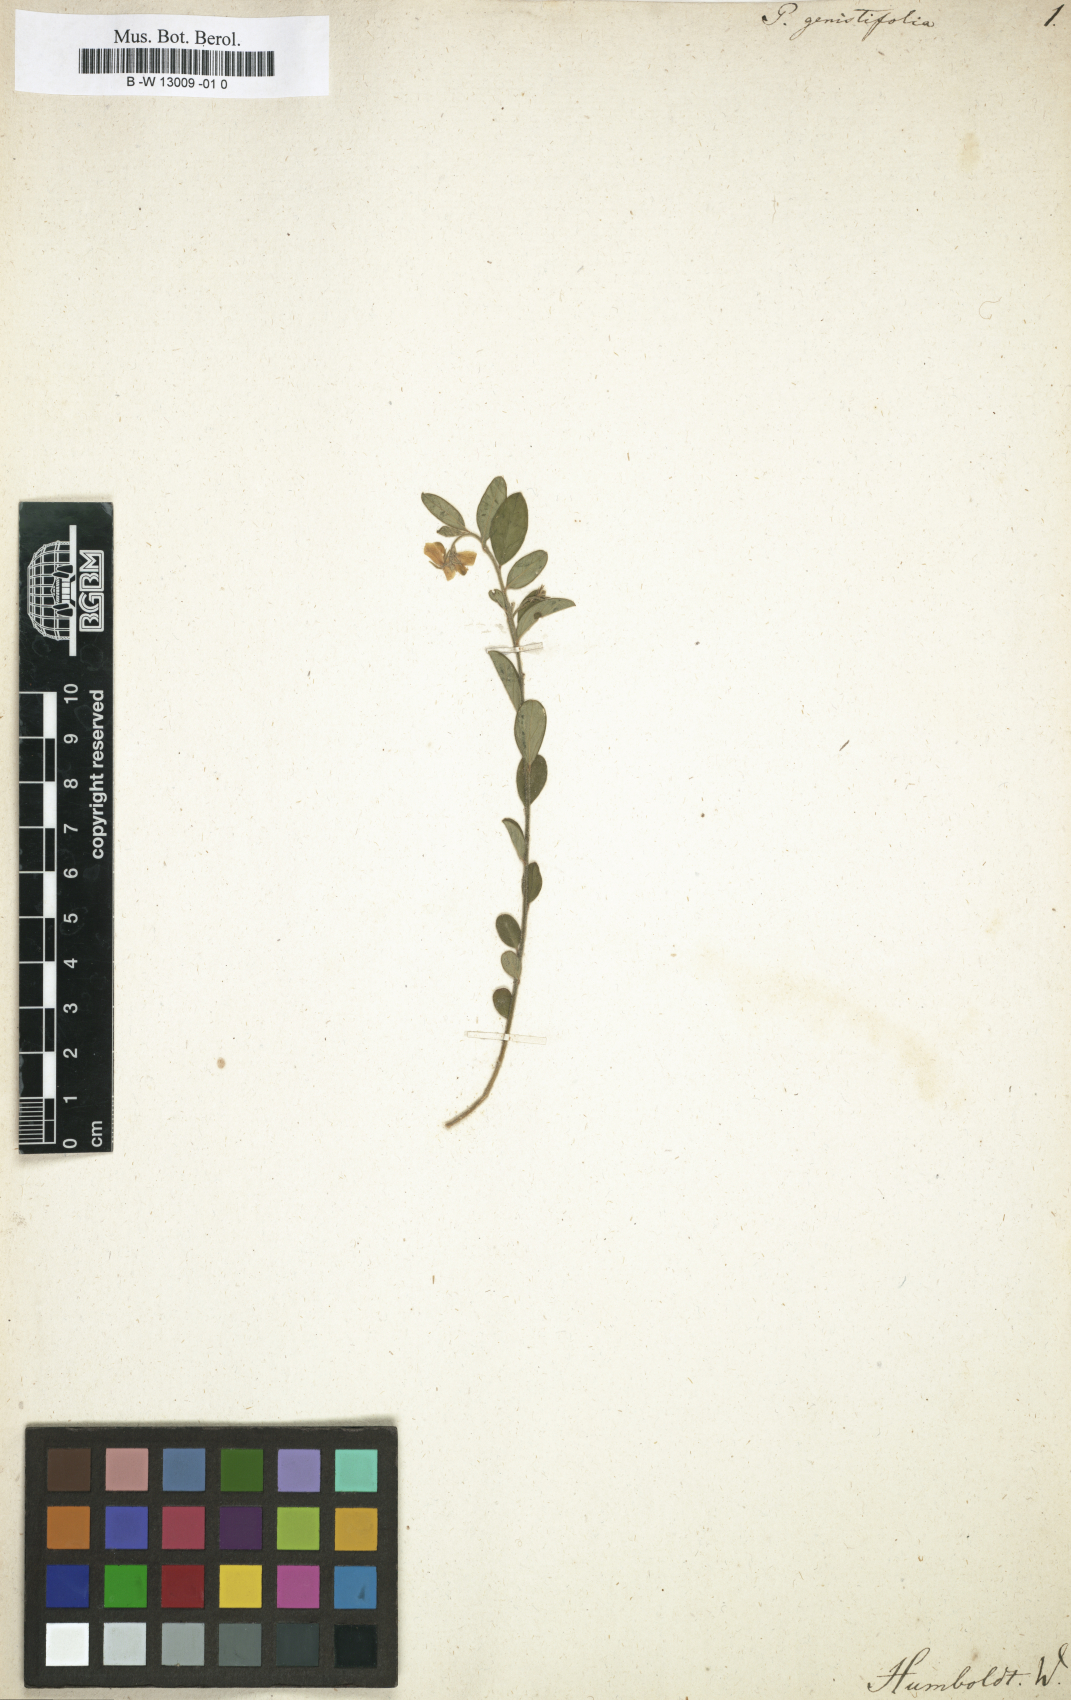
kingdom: Plantae
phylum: Tracheophyta
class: Magnoliopsida
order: Fabales
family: Polygalaceae
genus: Polygala
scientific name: Polygala
